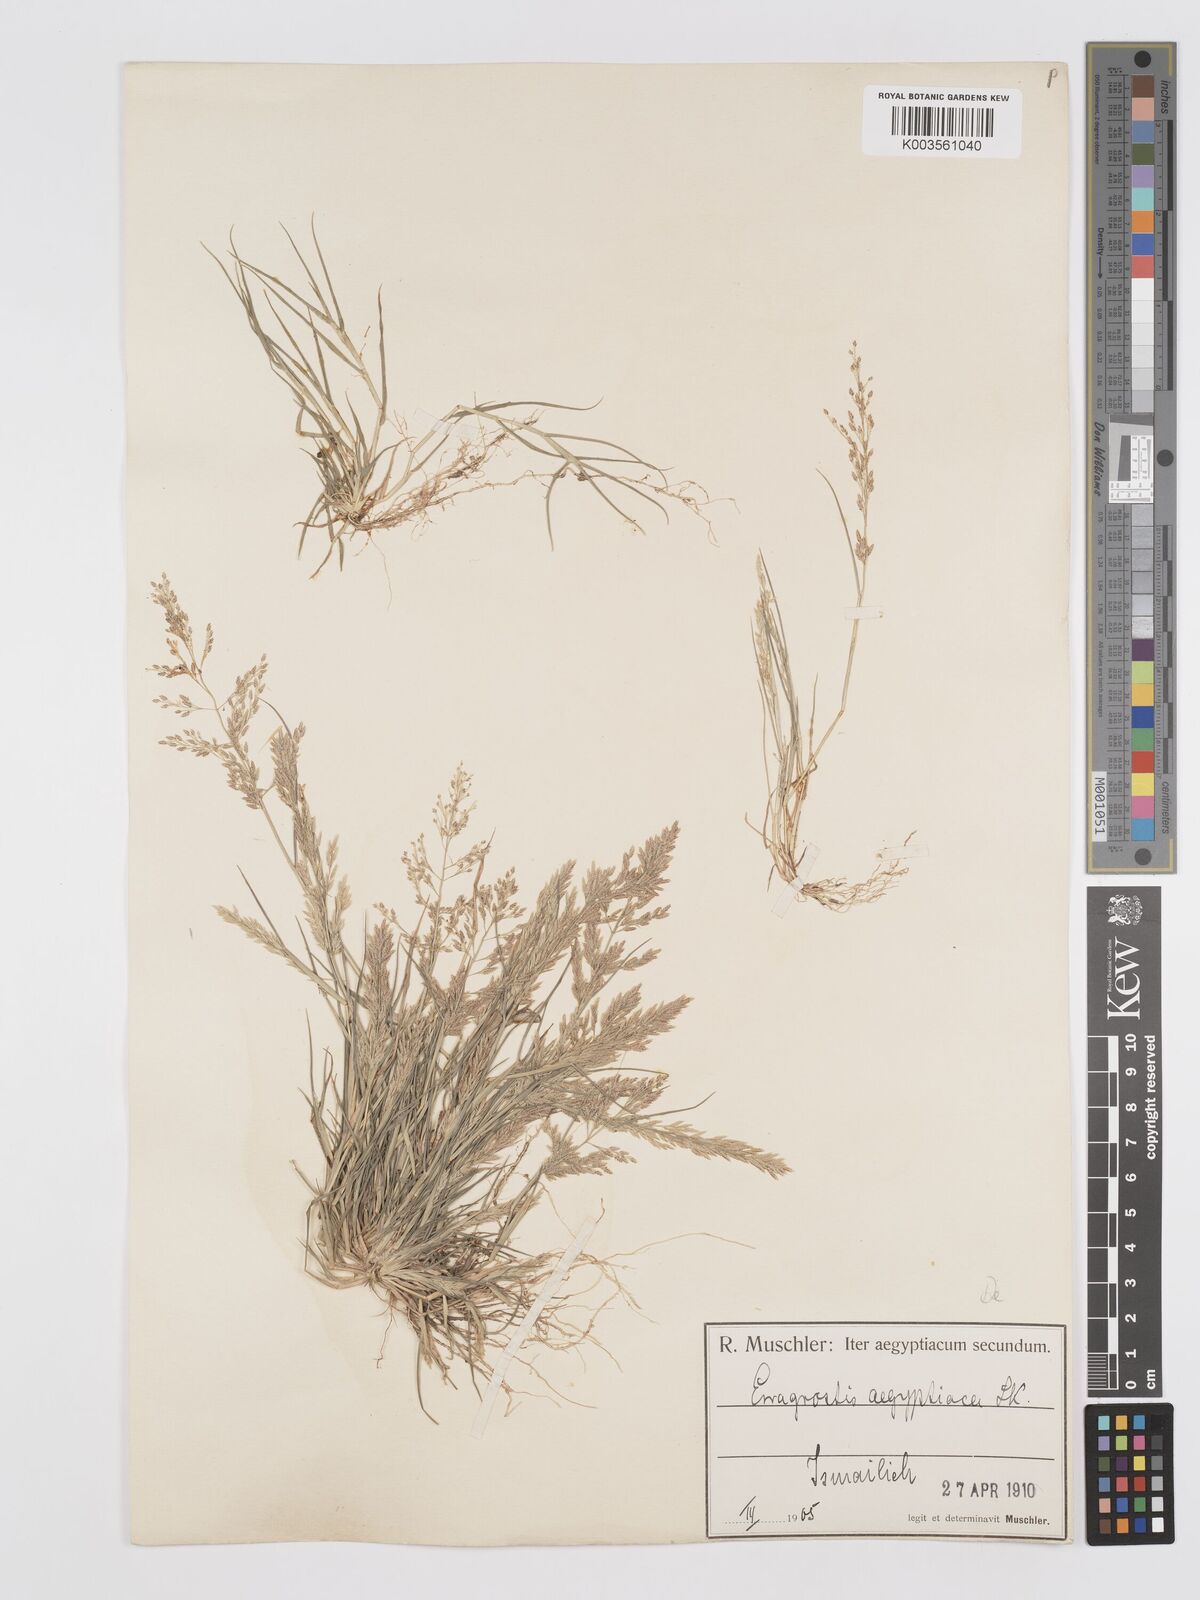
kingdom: Plantae
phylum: Tracheophyta
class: Liliopsida
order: Poales
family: Poaceae
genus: Eragrostis
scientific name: Eragrostis aegyptiaca
